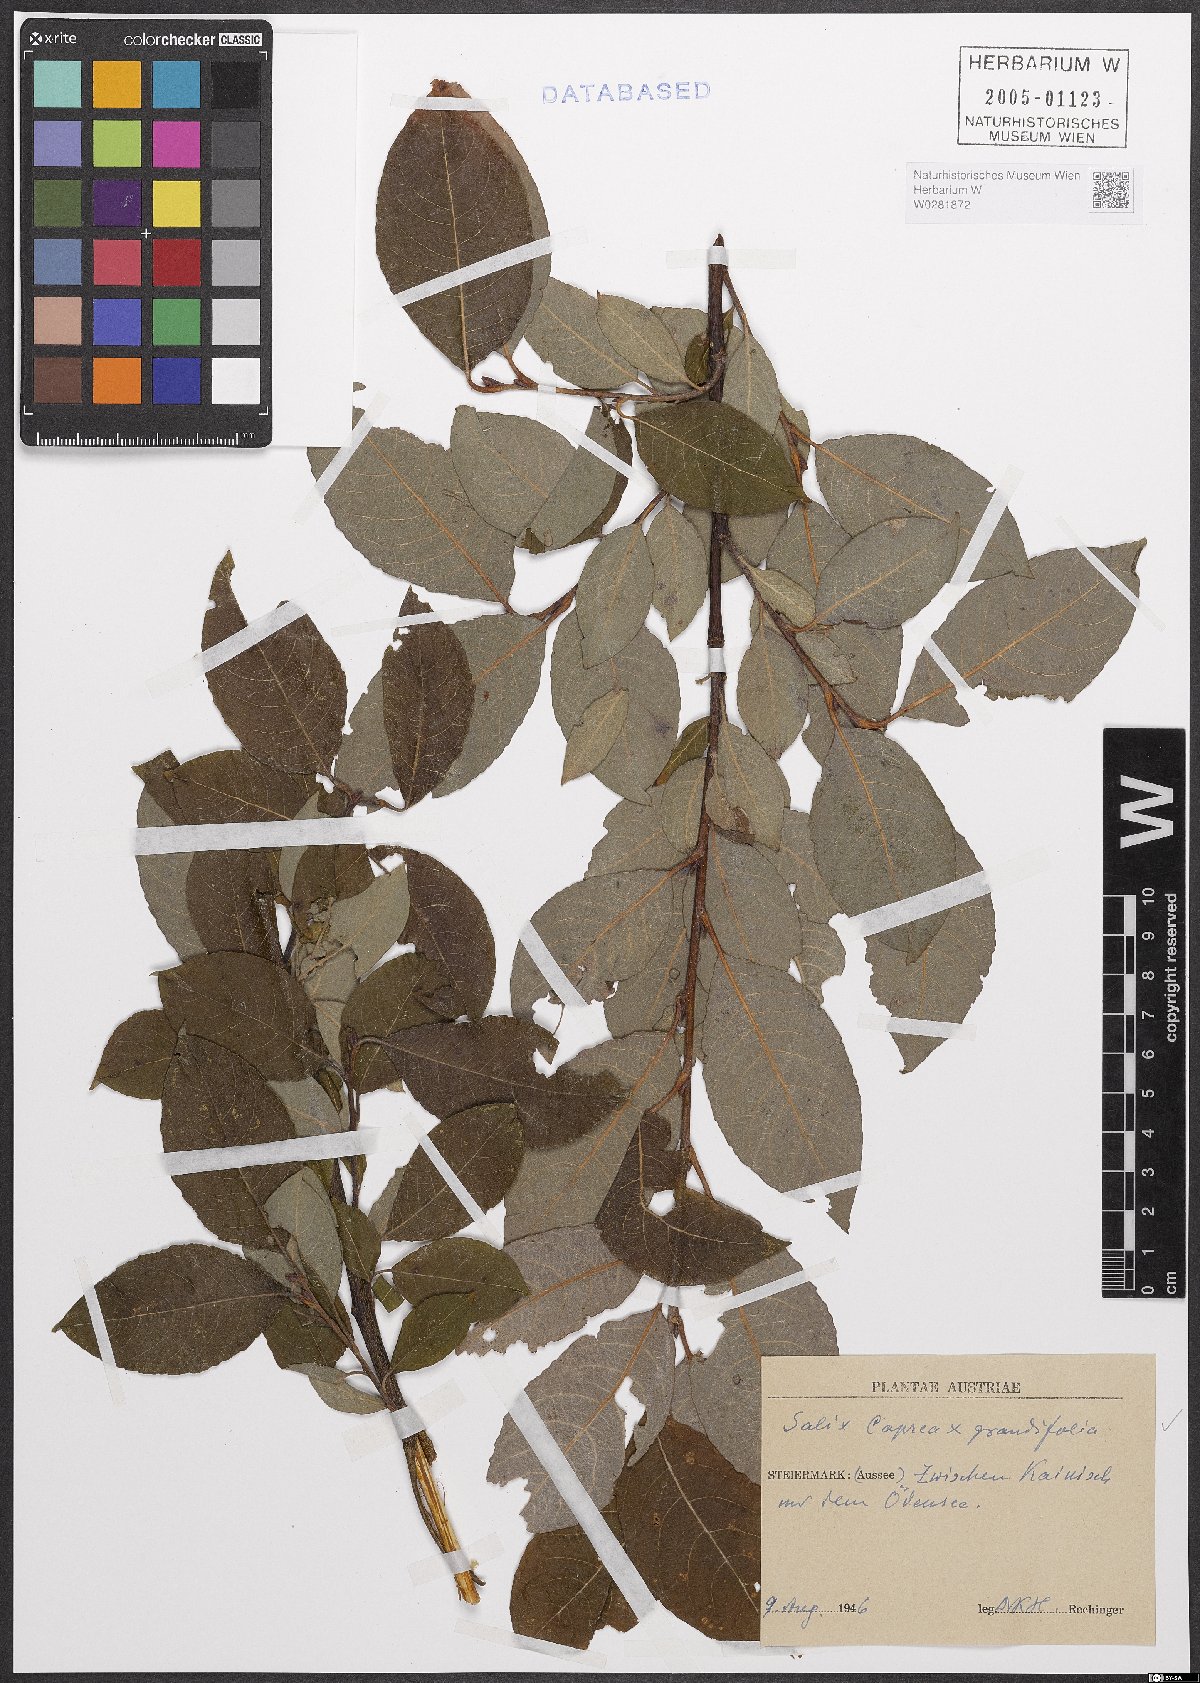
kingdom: Plantae
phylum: Tracheophyta
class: Magnoliopsida
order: Malpighiales
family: Salicaceae
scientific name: Salicaceae
